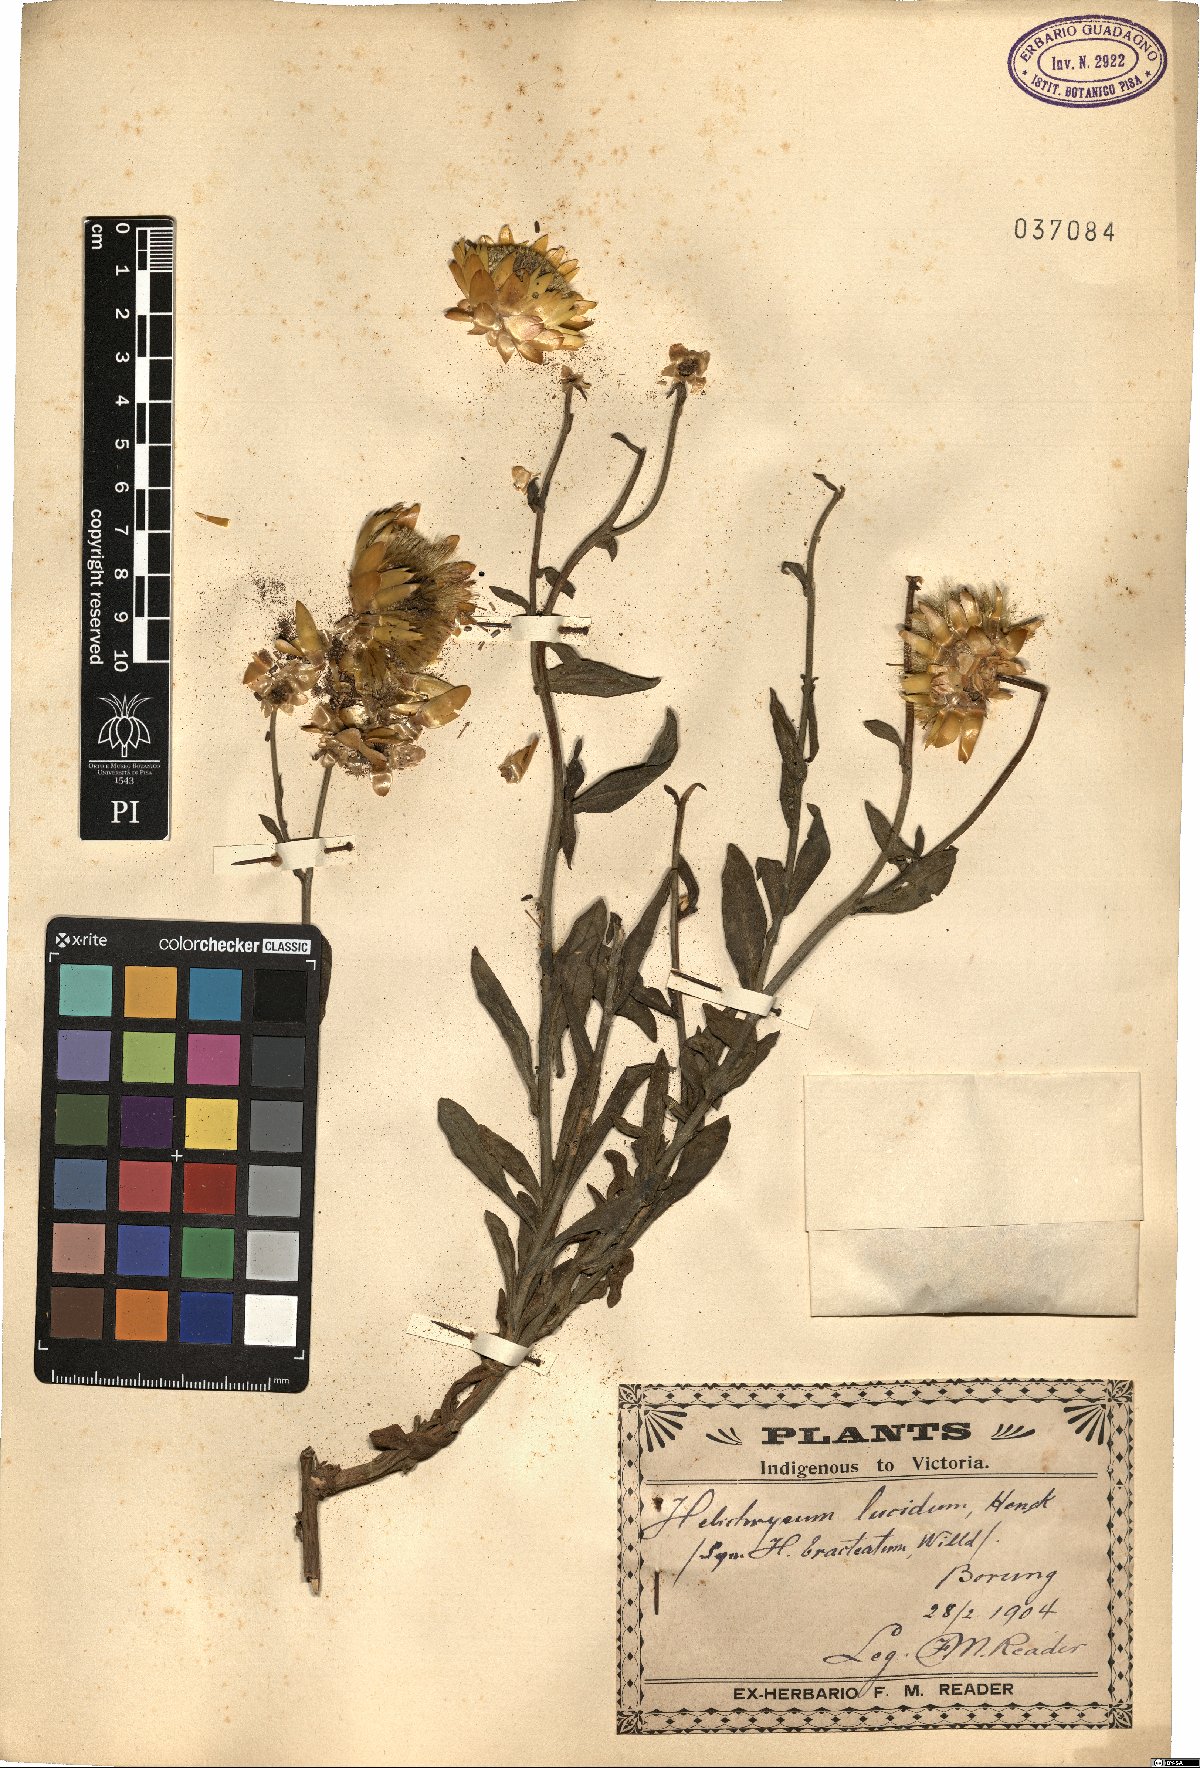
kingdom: Plantae
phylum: Tracheophyta
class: Magnoliopsida
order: Asterales
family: Asteraceae
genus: Helichrysum
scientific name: Helichrysum lucidum
